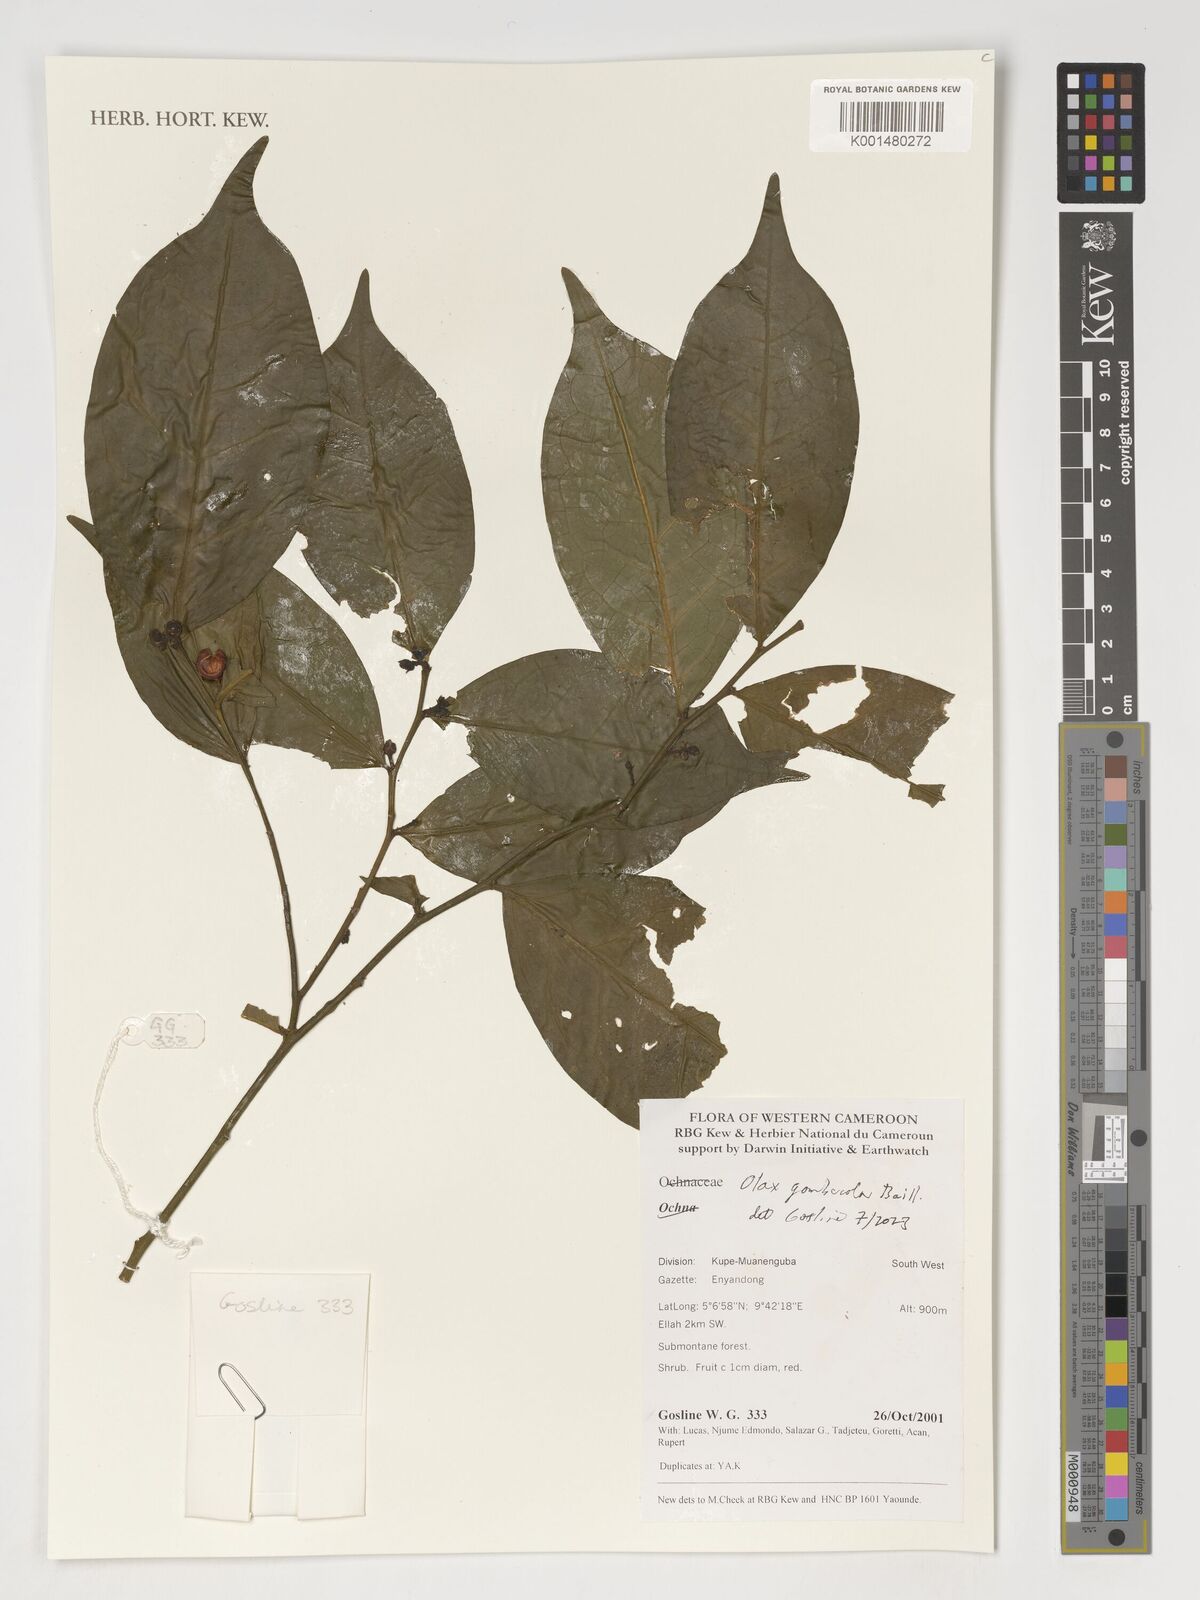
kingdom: Plantae
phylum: Tracheophyta
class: Magnoliopsida
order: Santalales
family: Olacaceae
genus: Olax
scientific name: Olax gambecola
